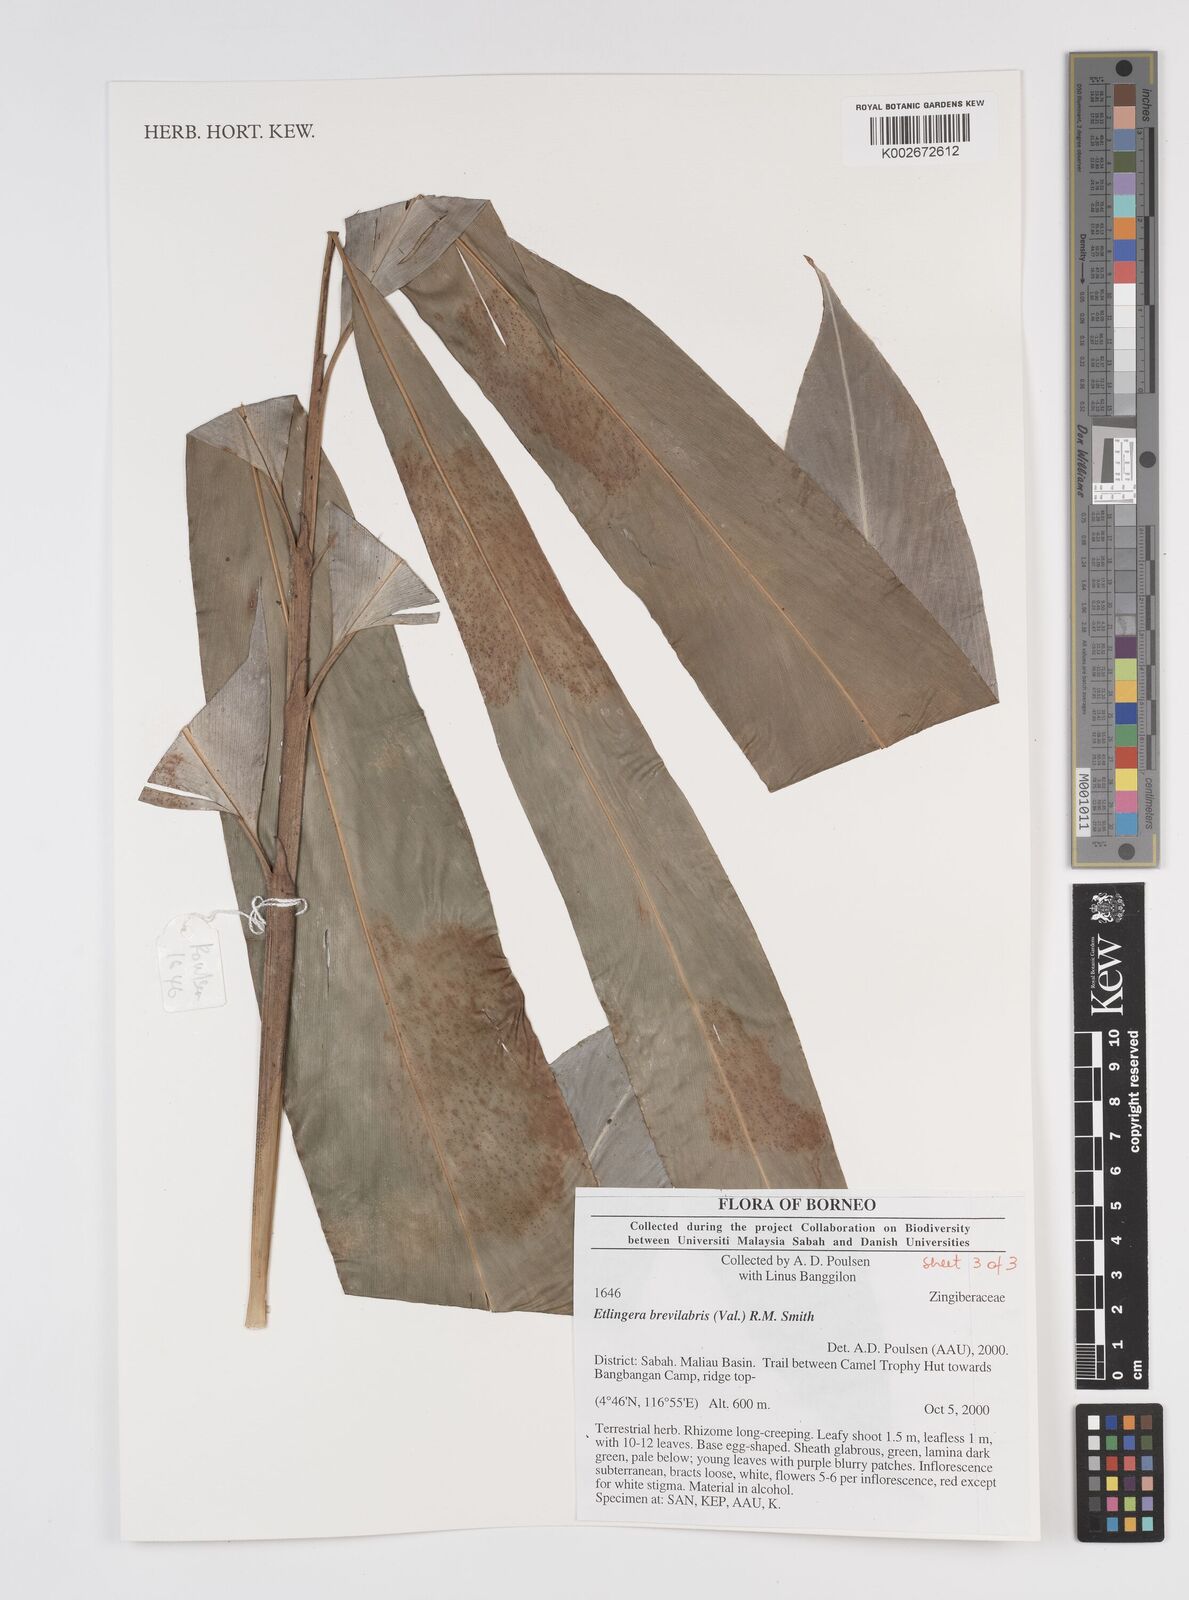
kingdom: Plantae
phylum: Tracheophyta
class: Liliopsida
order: Zingiberales
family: Zingiberaceae
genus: Etlingera
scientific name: Etlingera
